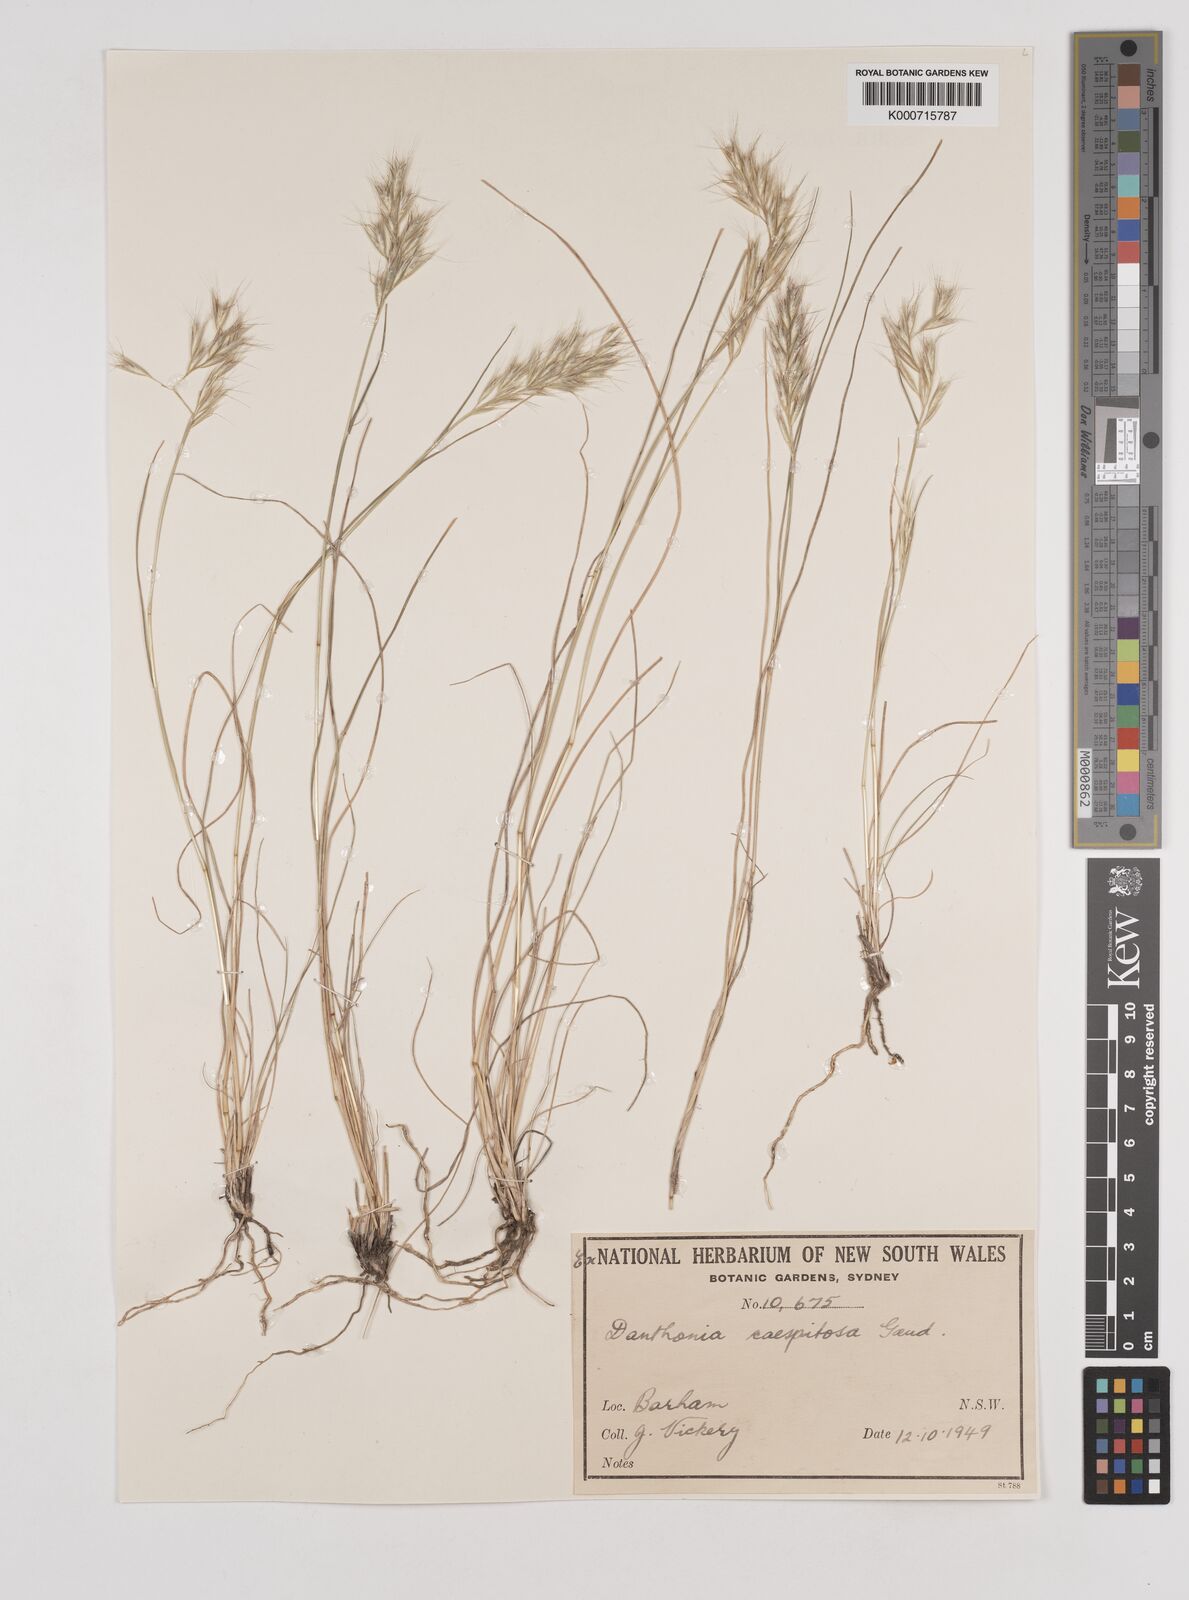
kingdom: Plantae
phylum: Tracheophyta
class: Liliopsida
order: Poales
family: Poaceae
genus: Rytidosperma
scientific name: Rytidosperma caespitosum
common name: Tufted wallaby grass
